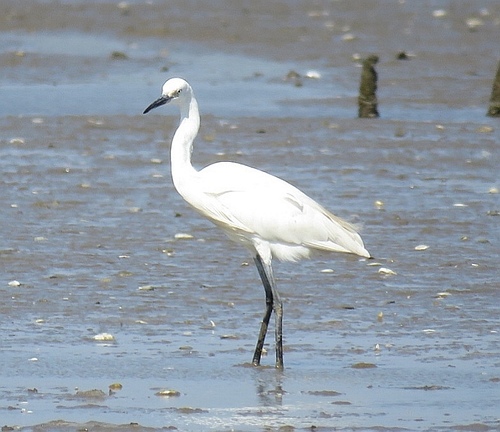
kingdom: Animalia
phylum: Chordata
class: Aves
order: Pelecaniformes
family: Ardeidae
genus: Egretta
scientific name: Egretta garzetta
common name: Little egret
